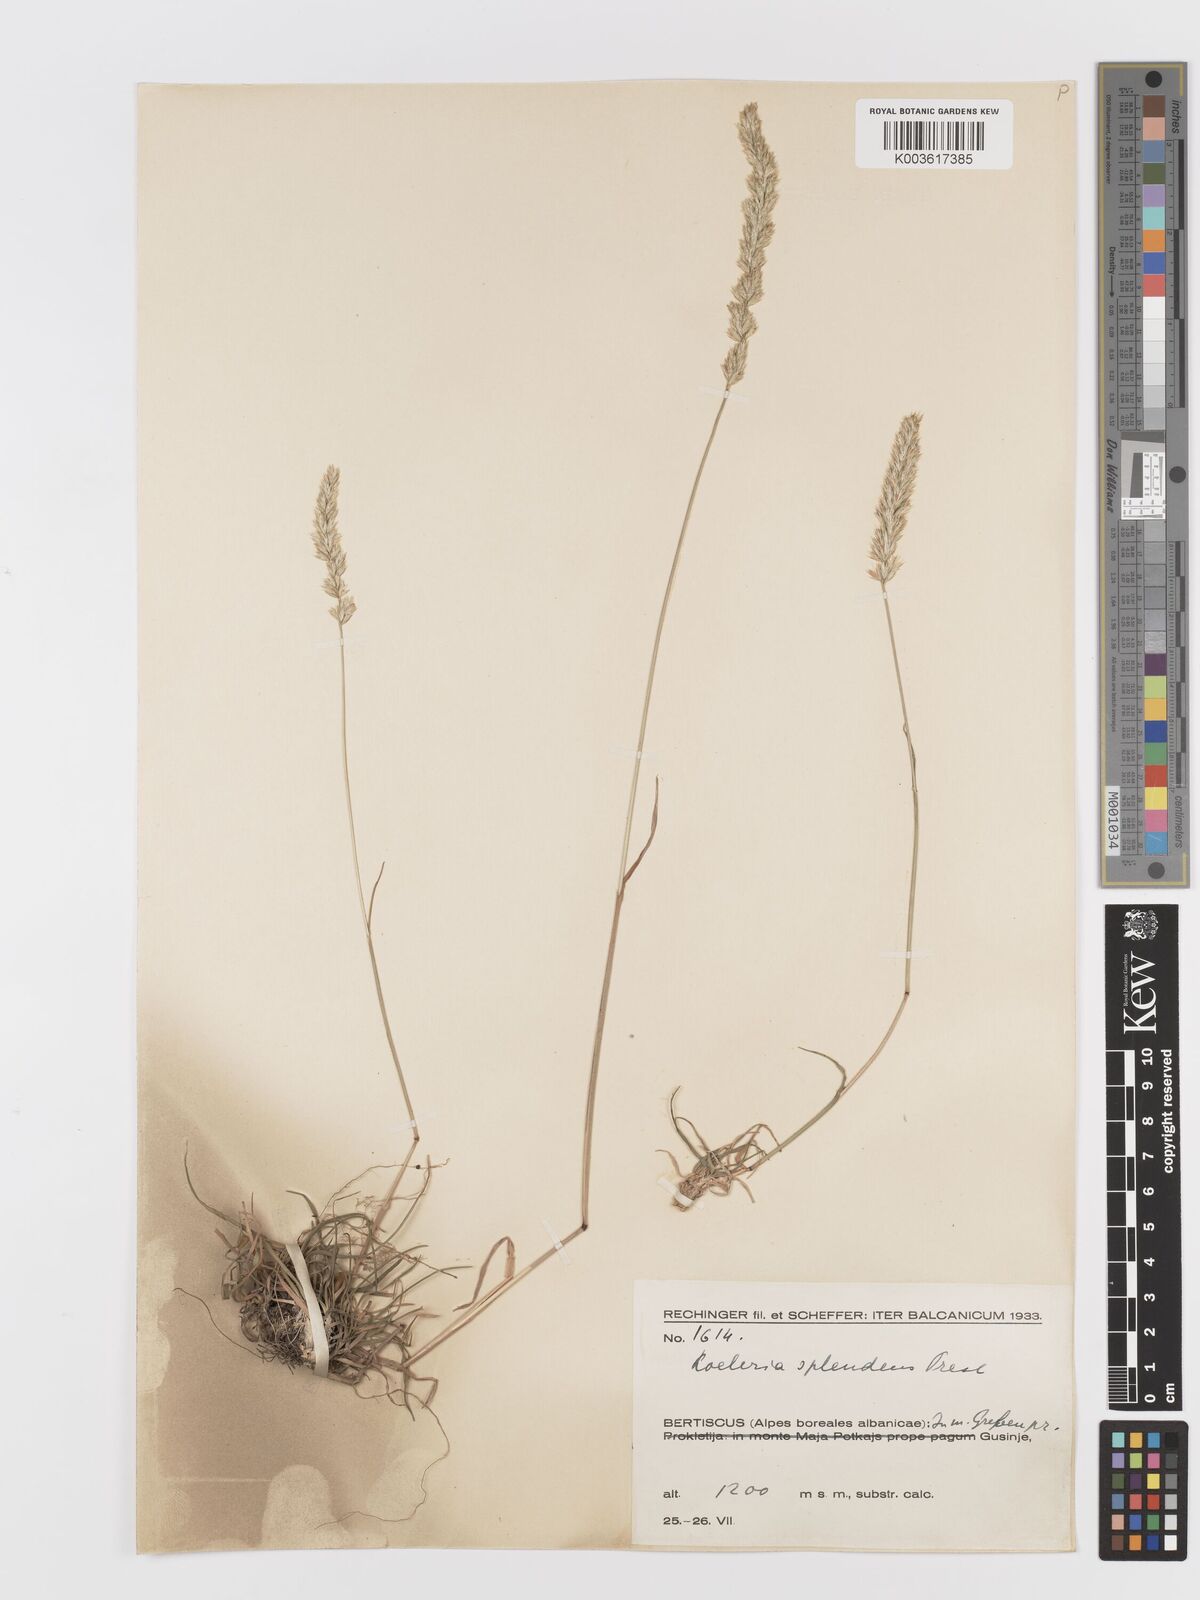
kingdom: Plantae
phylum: Tracheophyta
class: Liliopsida
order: Poales
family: Poaceae
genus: Koeleria
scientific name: Koeleria splendens
